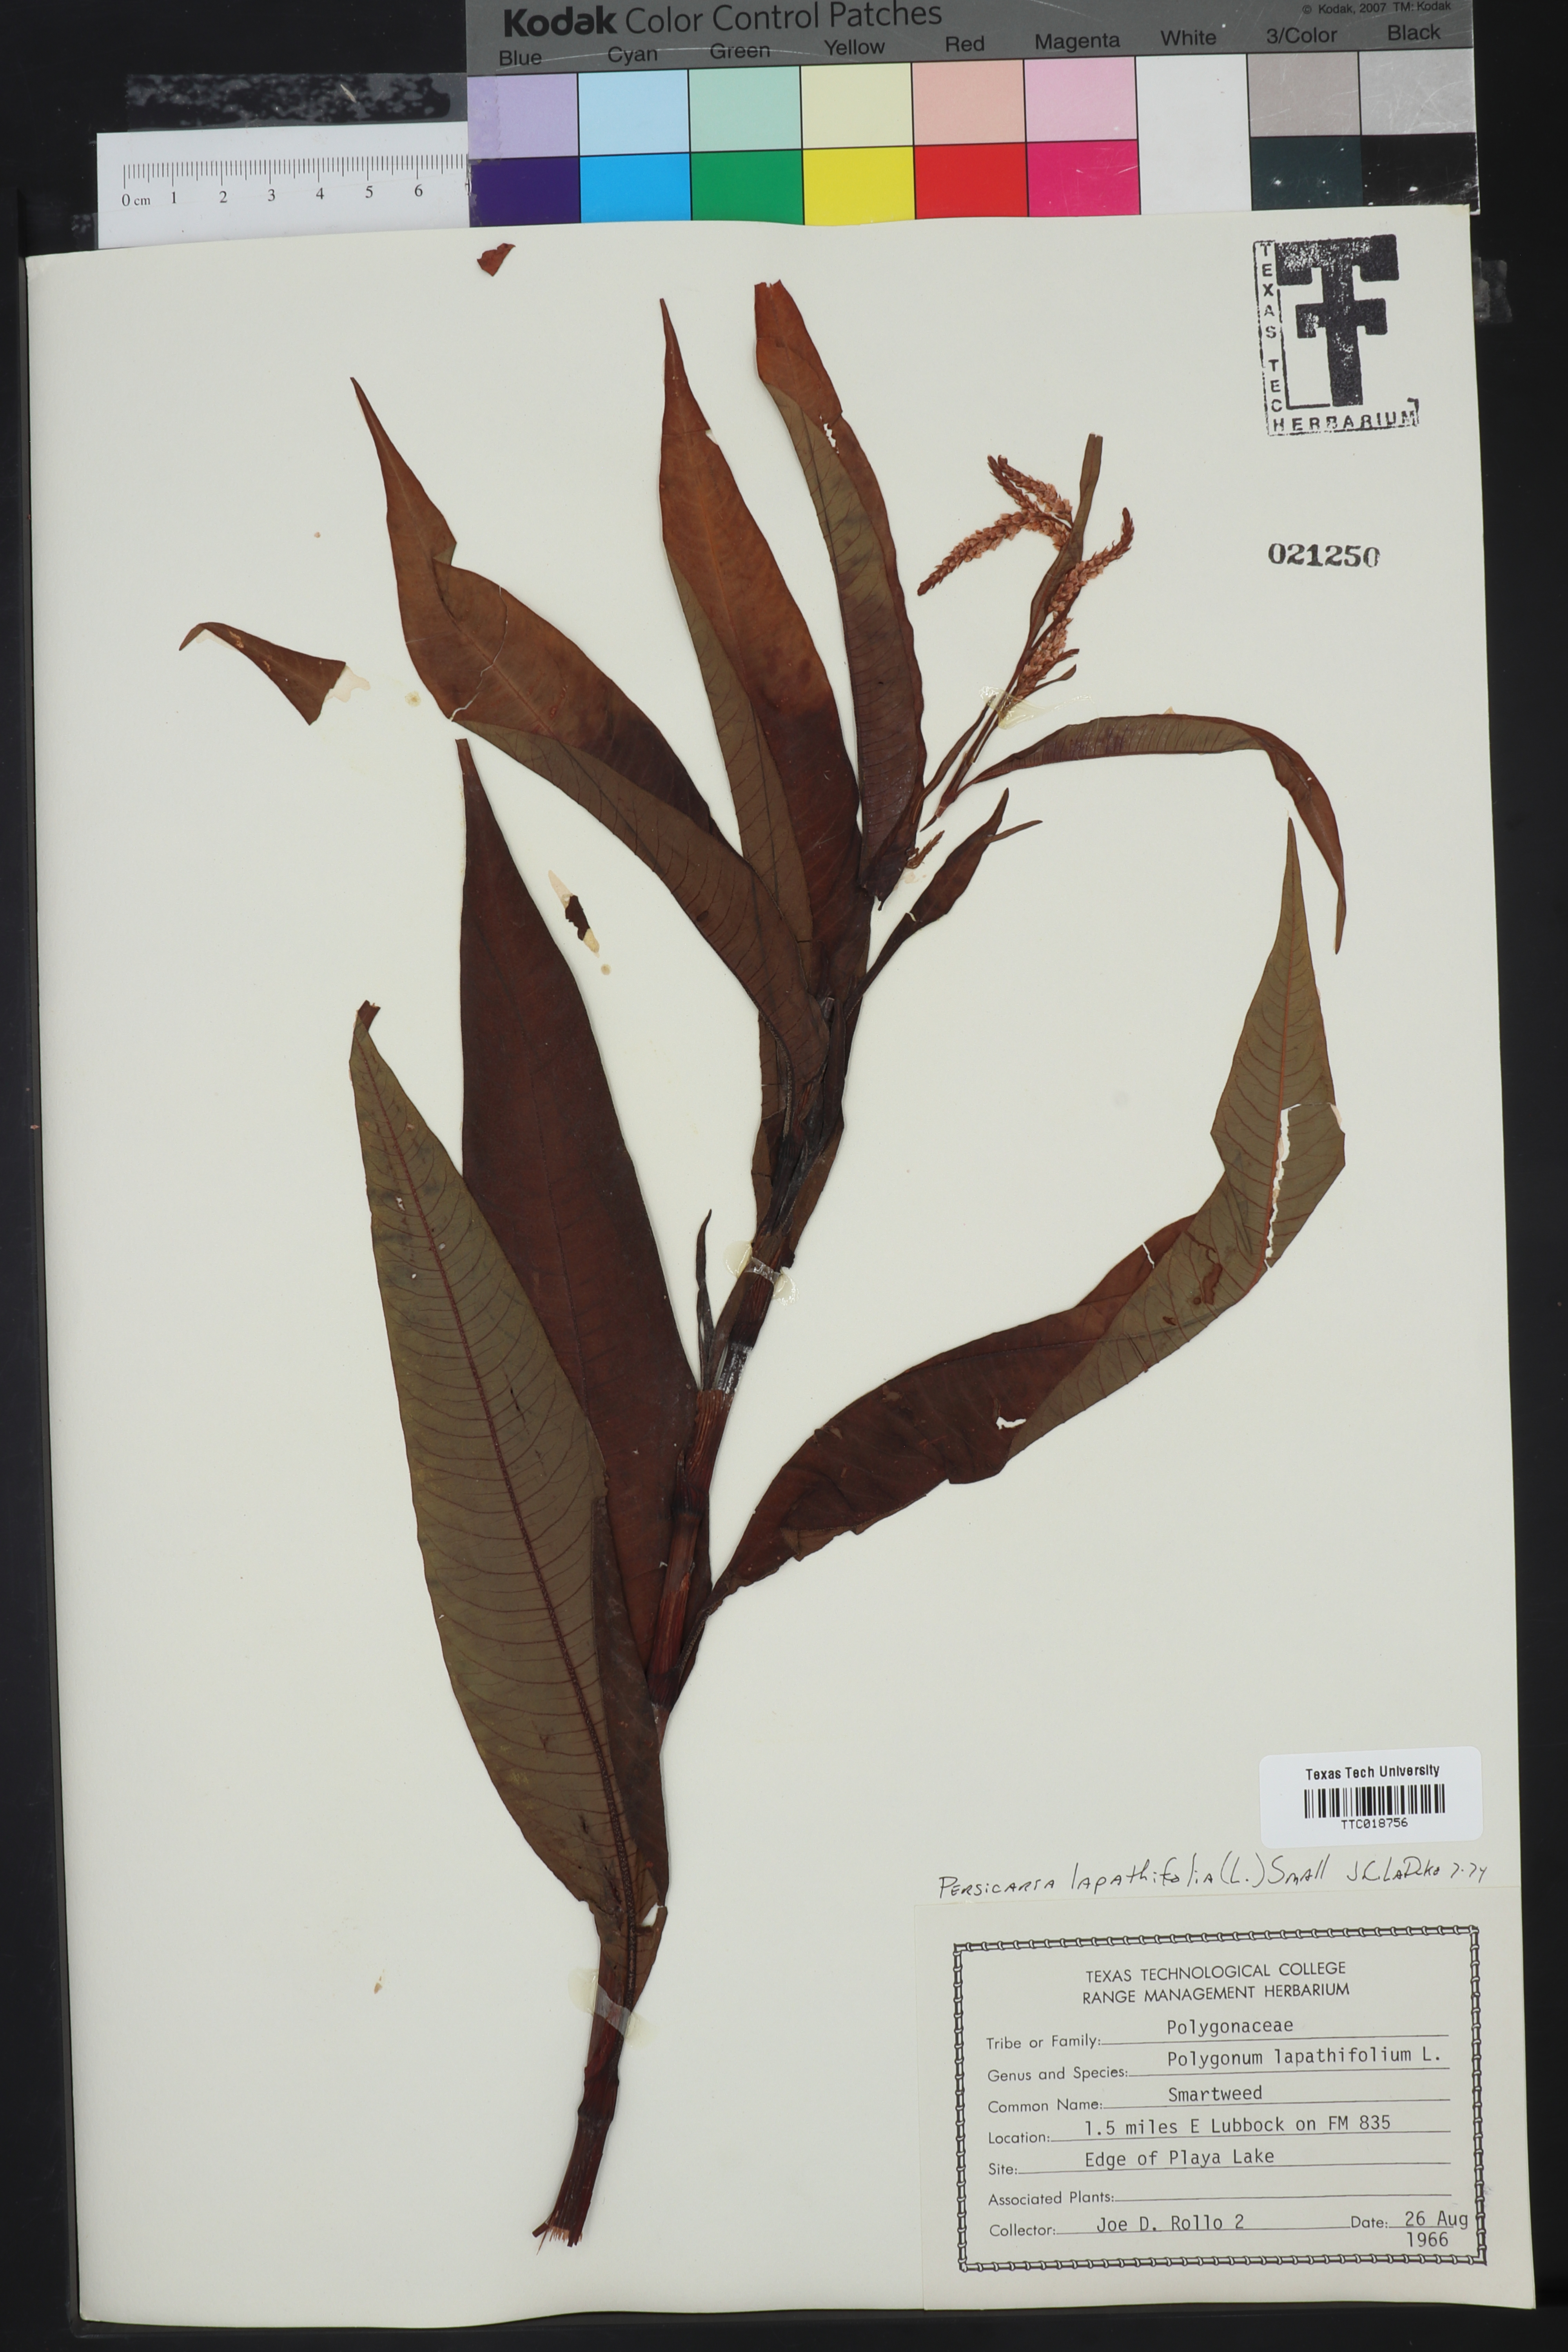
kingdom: Plantae
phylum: Tracheophyta
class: Magnoliopsida
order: Caryophyllales
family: Polygonaceae
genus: Persicaria
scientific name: Persicaria lapathifolia
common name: Curlytop knotweed
